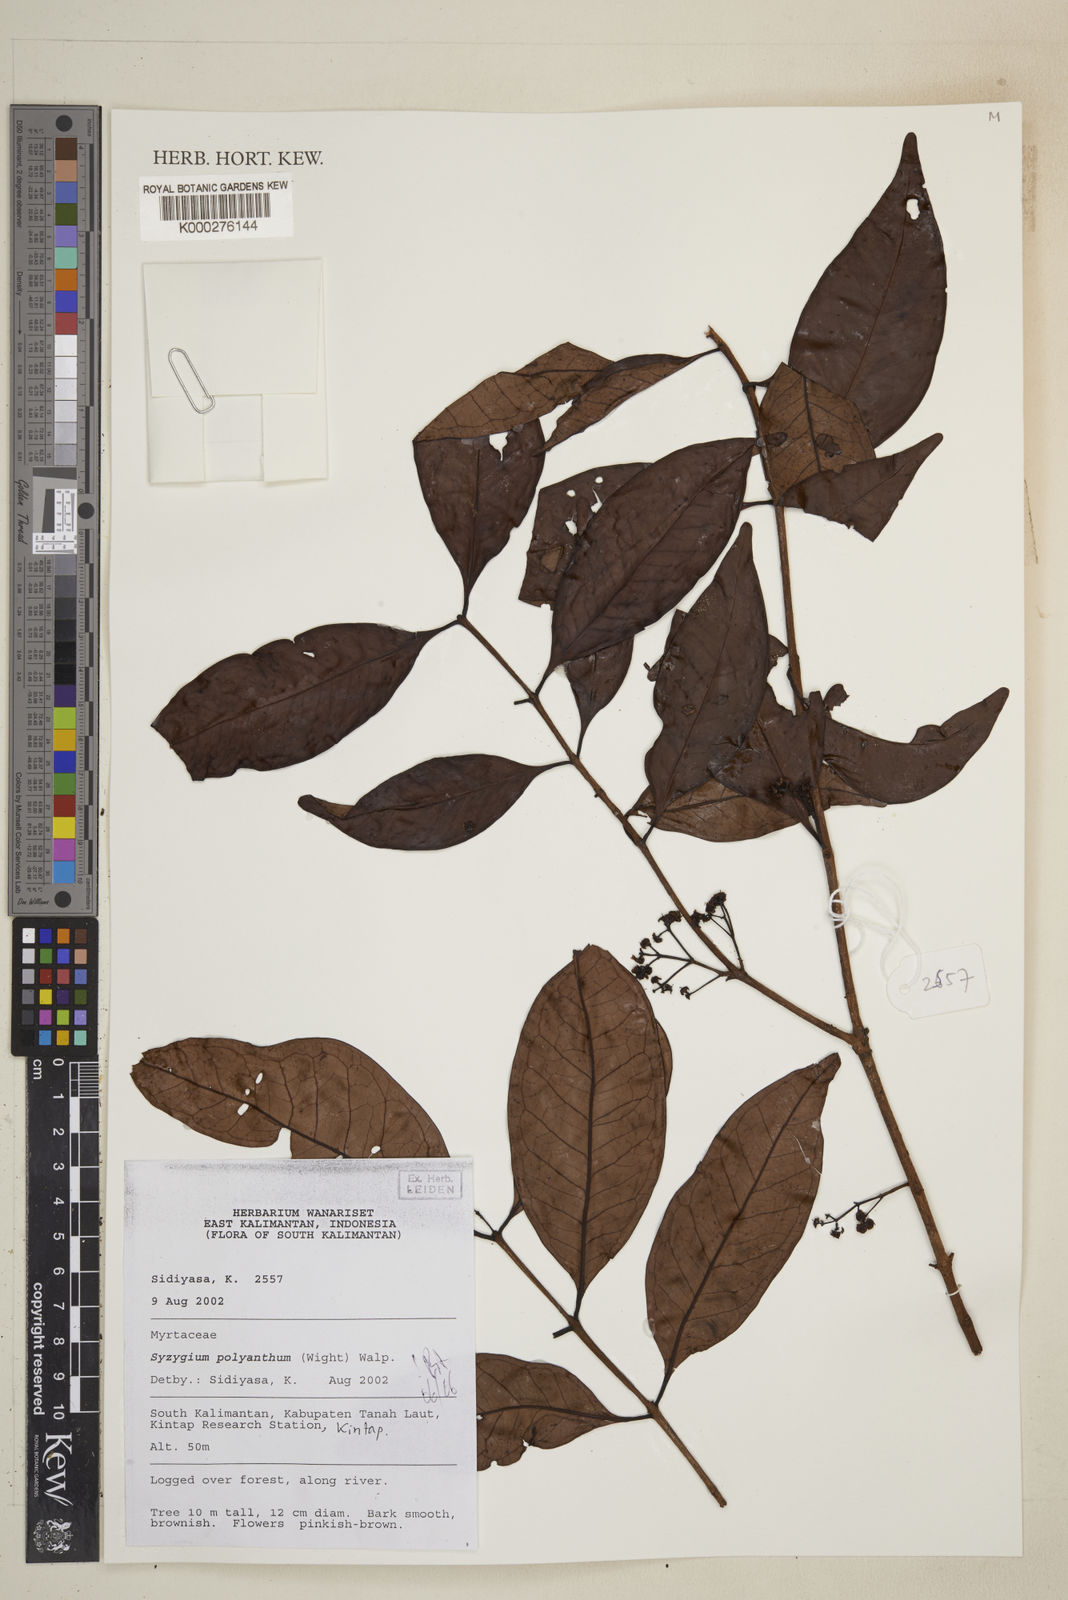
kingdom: Plantae
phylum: Tracheophyta
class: Magnoliopsida
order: Myrtales
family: Myrtaceae
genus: Syzygium
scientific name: Syzygium polyanthum
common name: Indonesian bayleaf
